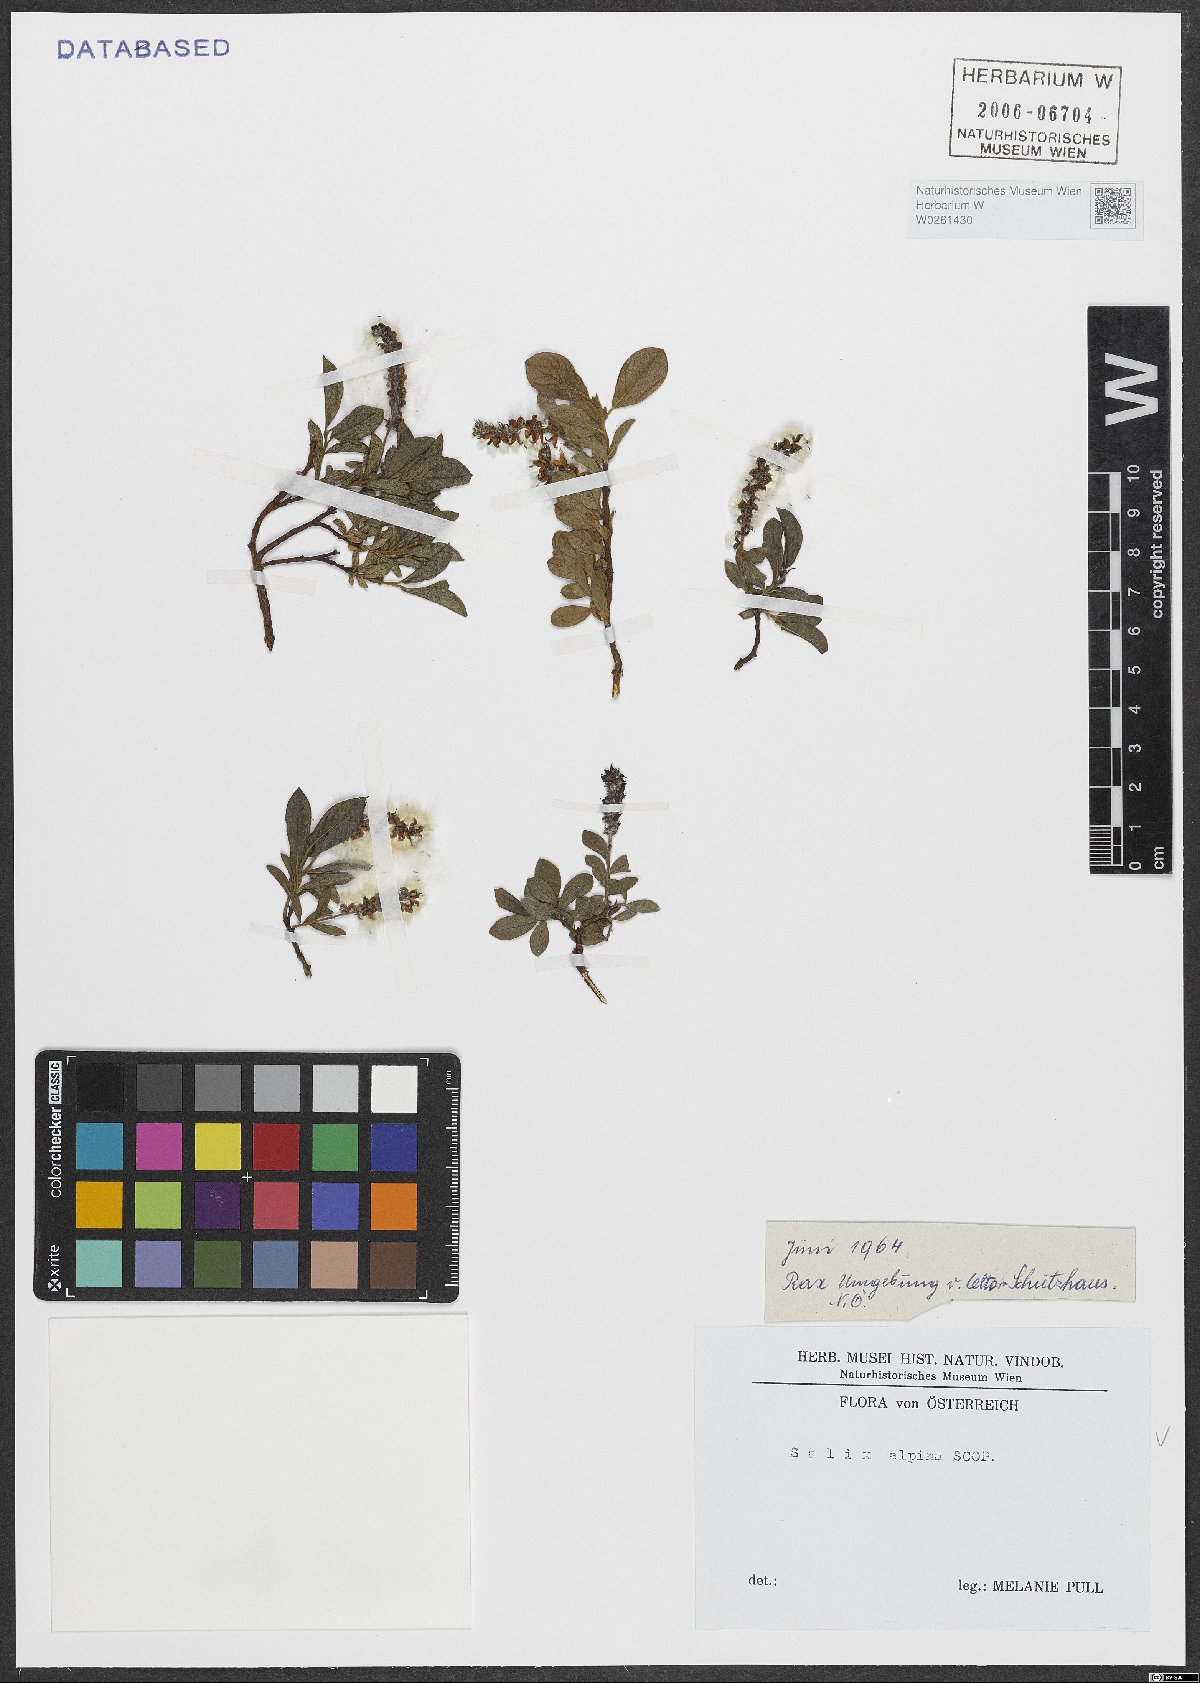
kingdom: Plantae
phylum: Tracheophyta
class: Magnoliopsida
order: Malpighiales
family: Salicaceae
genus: Salix
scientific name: Salix alpina
